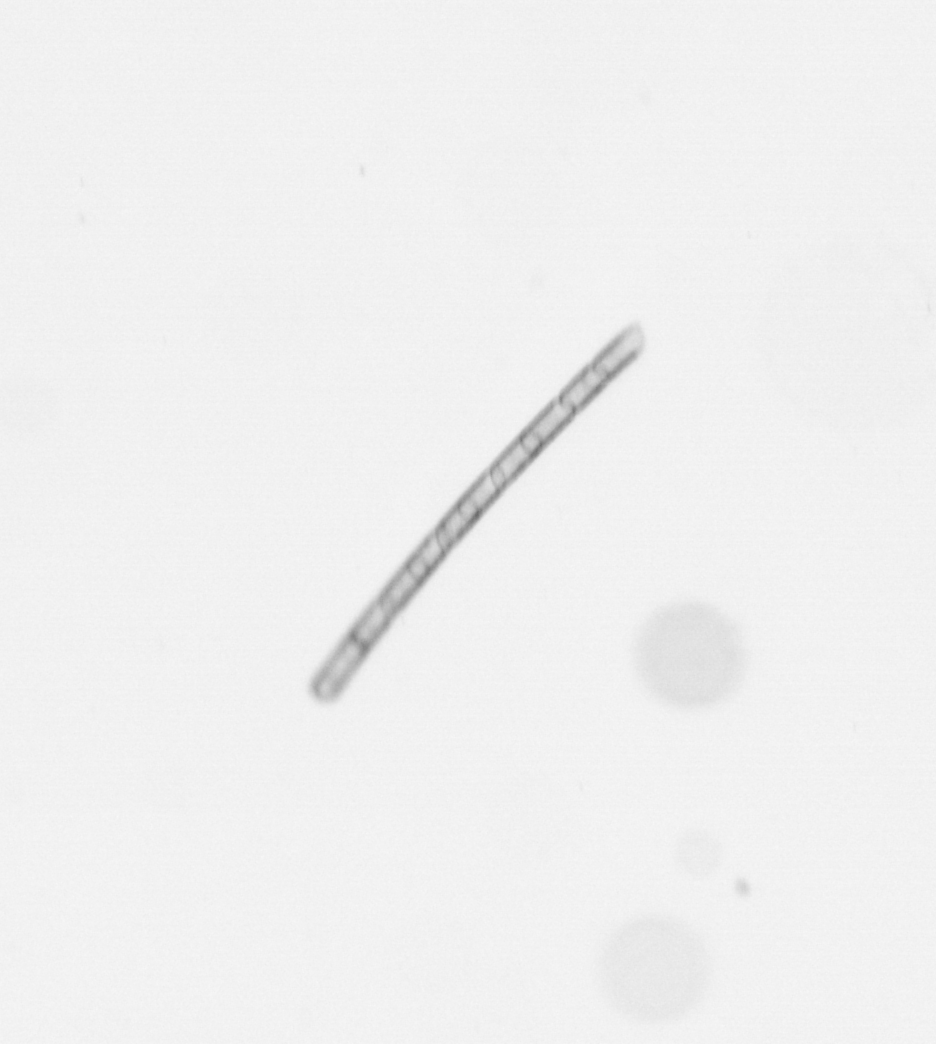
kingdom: Chromista
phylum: Ochrophyta
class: Bacillariophyceae
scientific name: Bacillariophyceae
